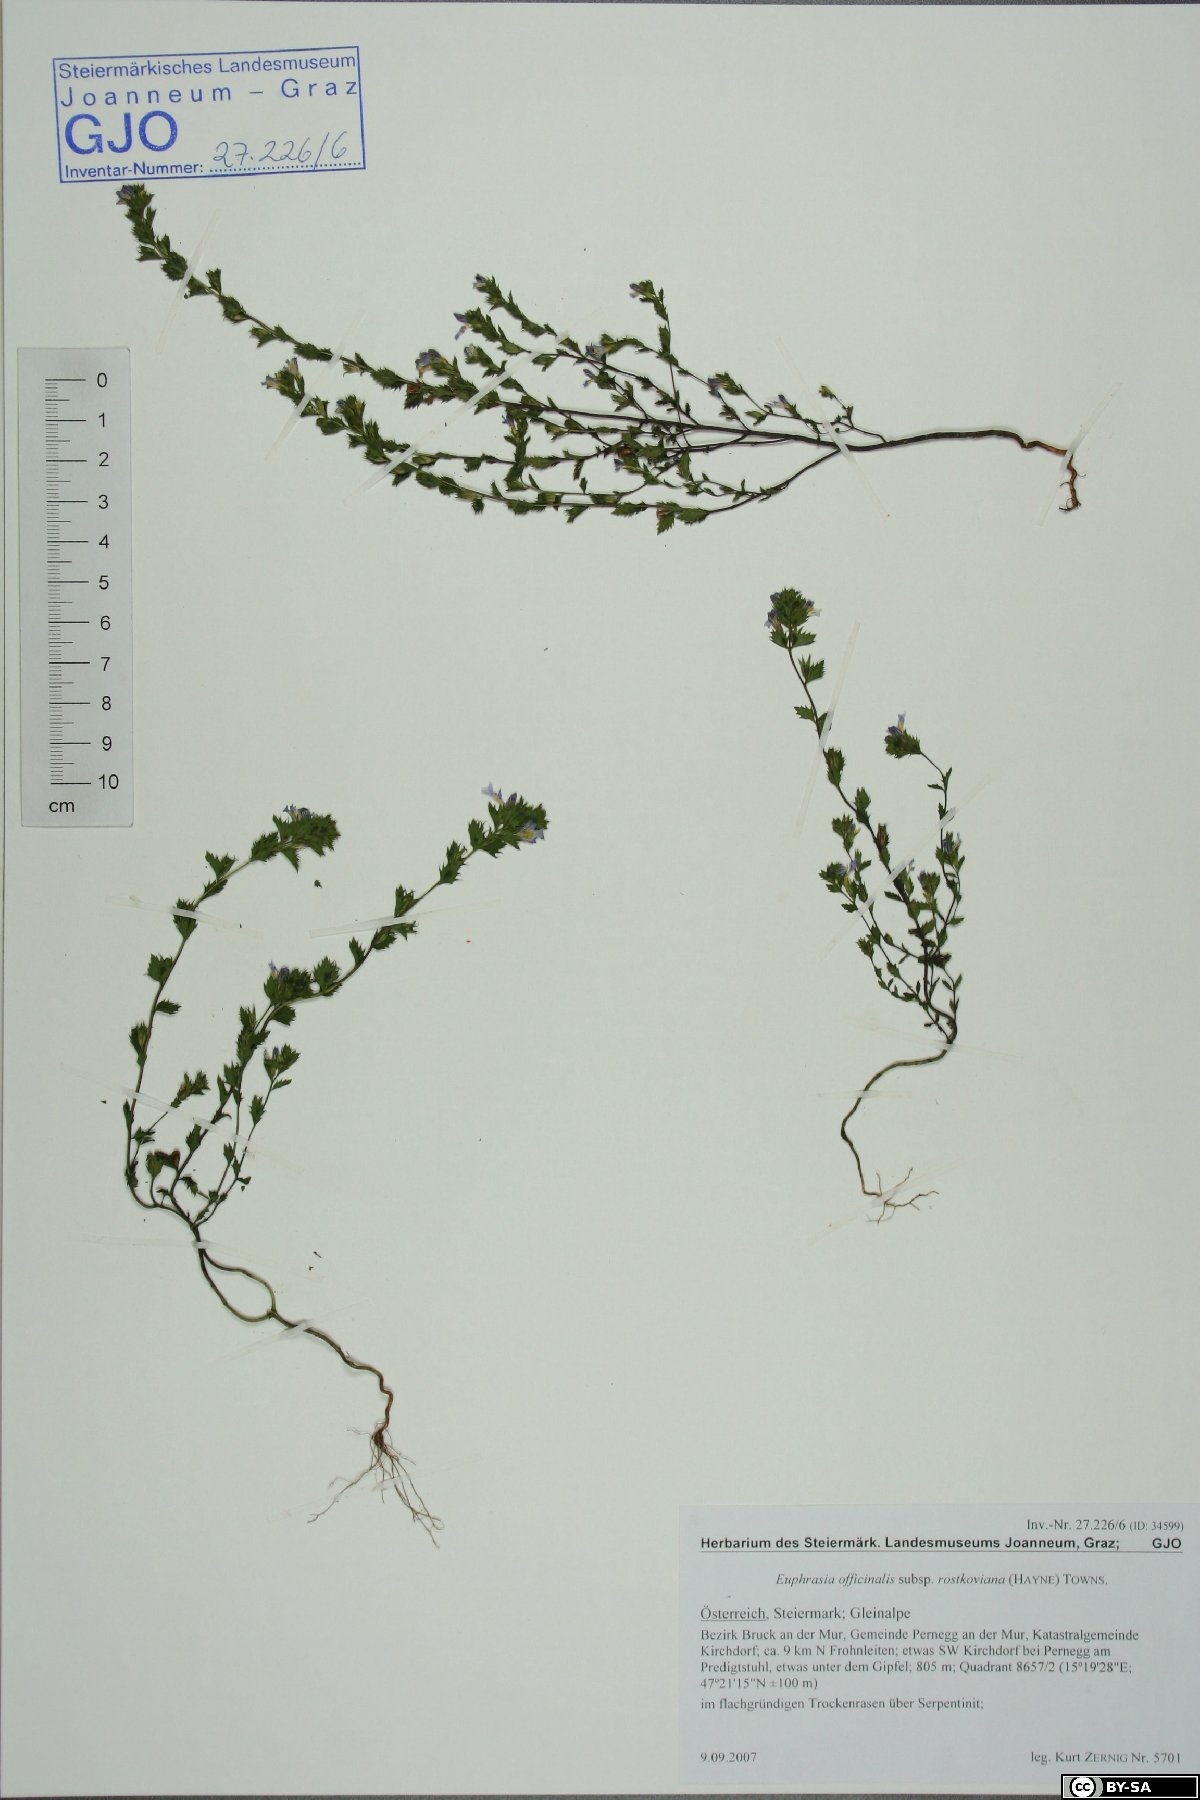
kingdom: Plantae
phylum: Tracheophyta
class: Magnoliopsida
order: Lamiales
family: Orobanchaceae
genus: Euphrasia
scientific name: Euphrasia officinalis
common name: Eyebright
